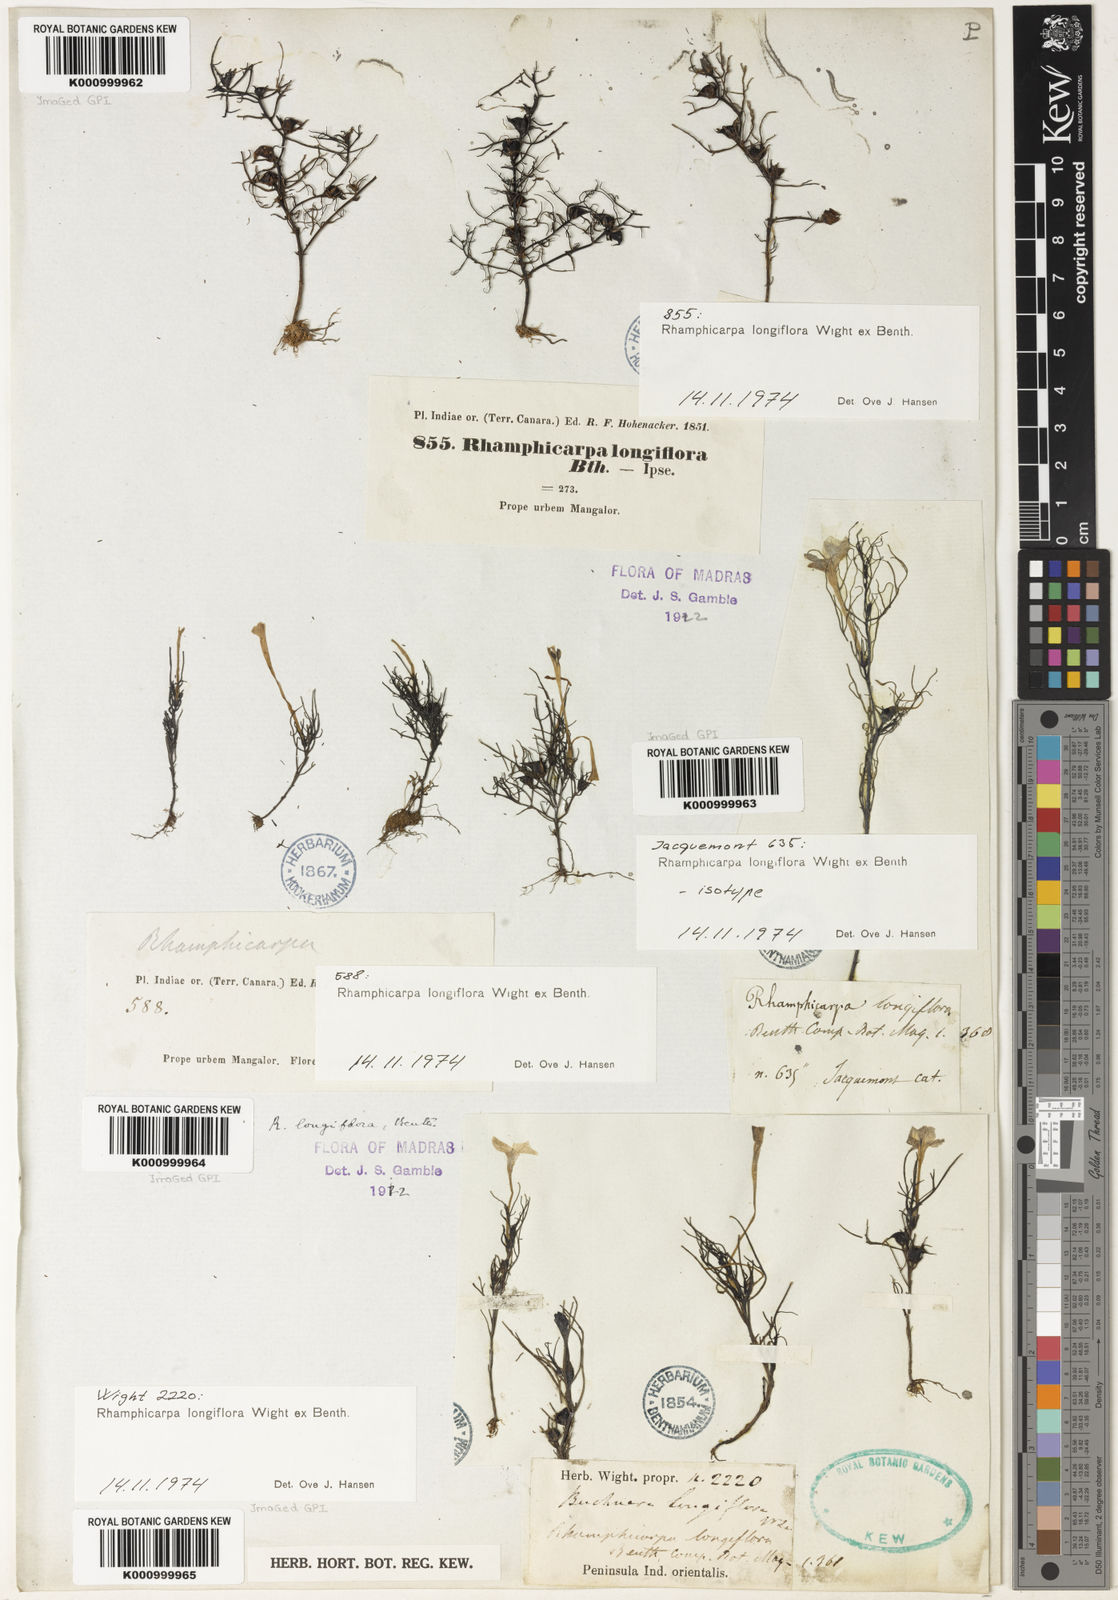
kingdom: Plantae
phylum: Tracheophyta
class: Magnoliopsida
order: Lamiales
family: Orobanchaceae
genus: Rhamphicarpa
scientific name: Rhamphicarpa elongata
